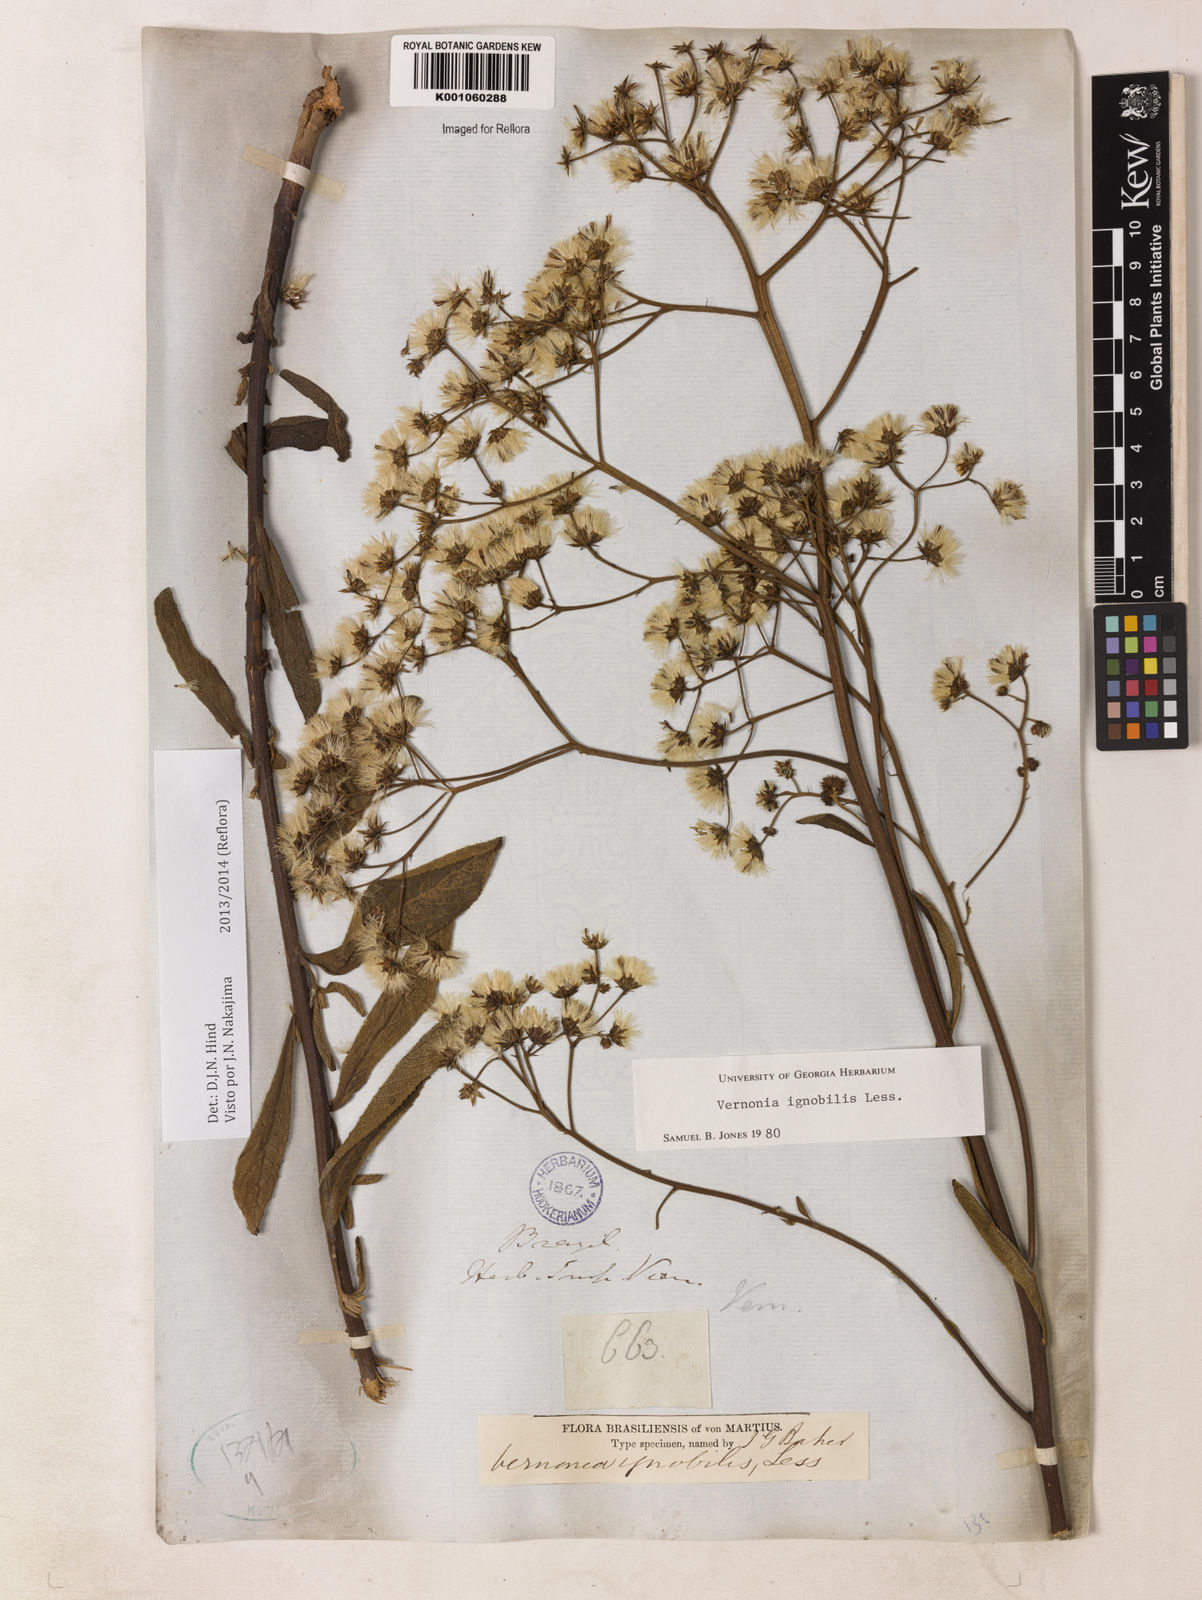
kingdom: Plantae
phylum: Tracheophyta
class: Magnoliopsida
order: Asterales
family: Asteraceae
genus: Vernonanthura
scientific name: Vernonanthura ignobilis
